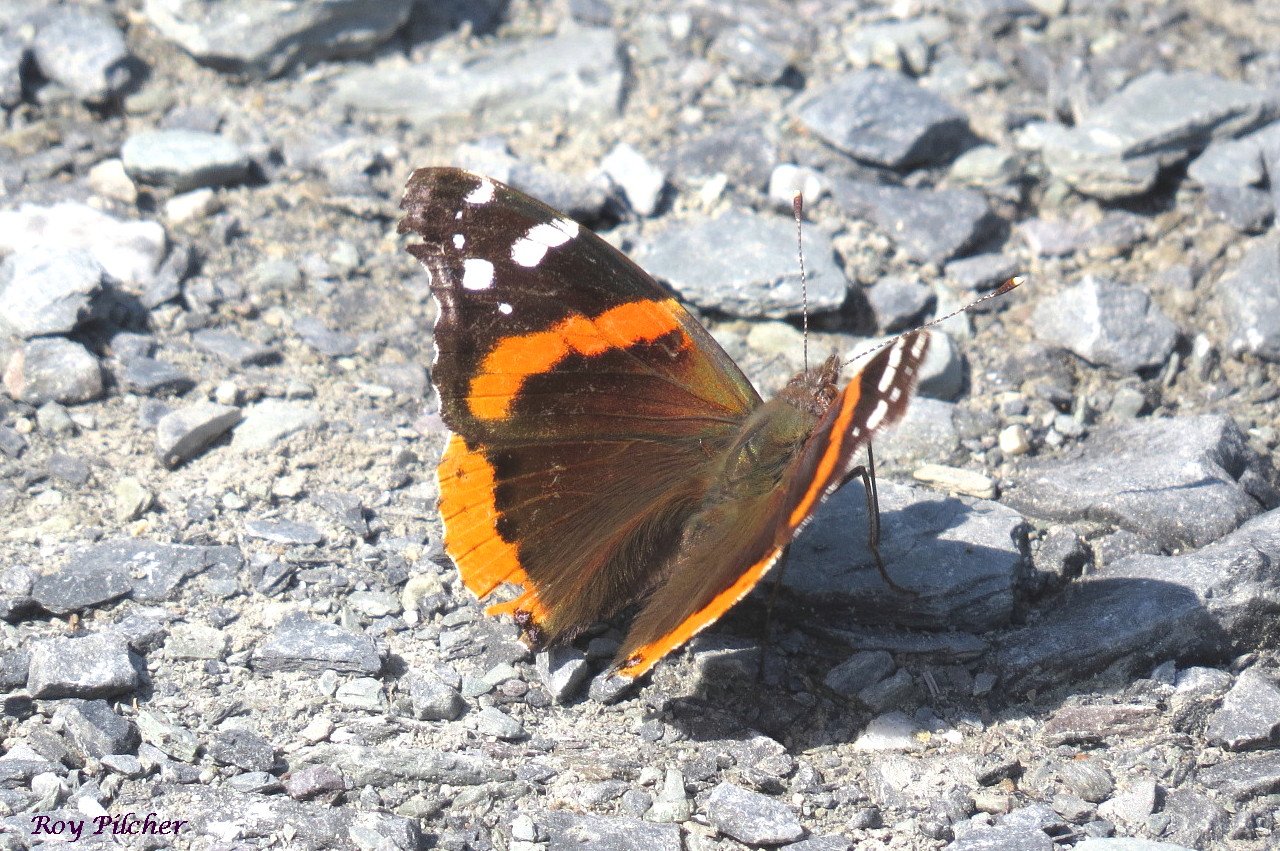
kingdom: Animalia
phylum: Arthropoda
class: Insecta
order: Lepidoptera
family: Nymphalidae
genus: Vanessa
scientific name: Vanessa atalanta
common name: Red Admiral
